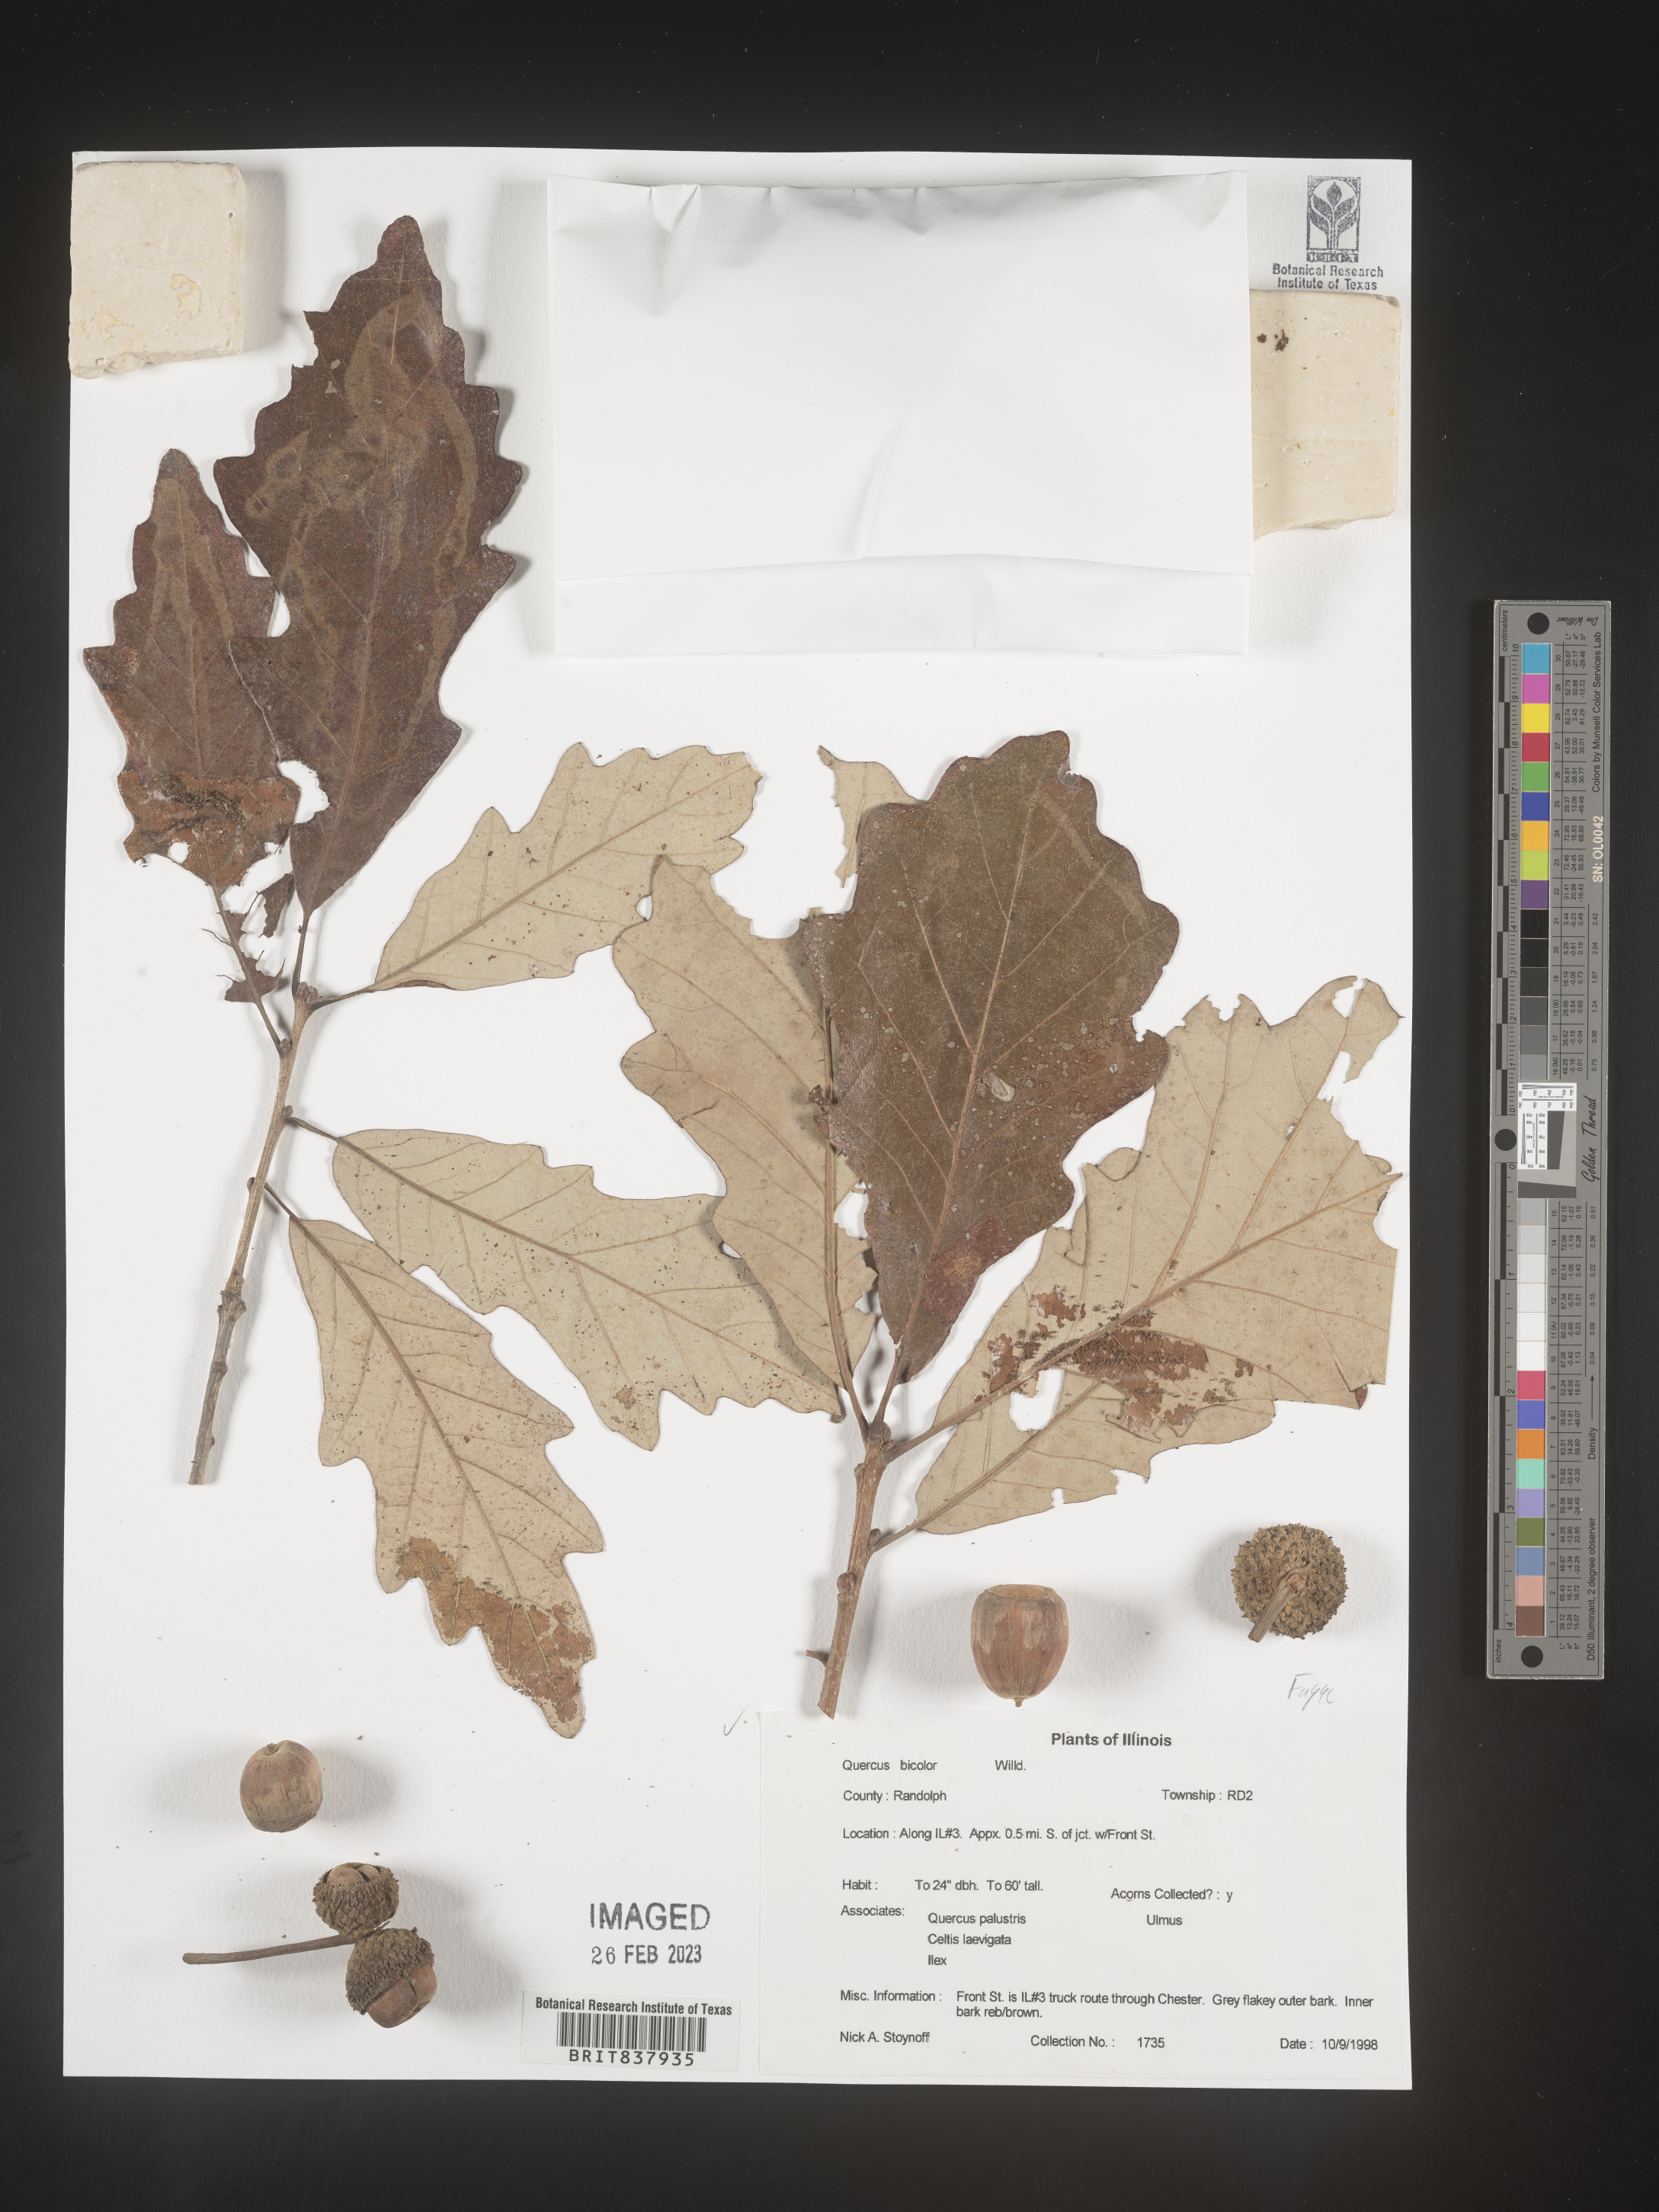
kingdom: Plantae
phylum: Tracheophyta
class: Magnoliopsida
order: Fagales
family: Fagaceae
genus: Quercus
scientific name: Quercus bicolor
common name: Swamp white oak
